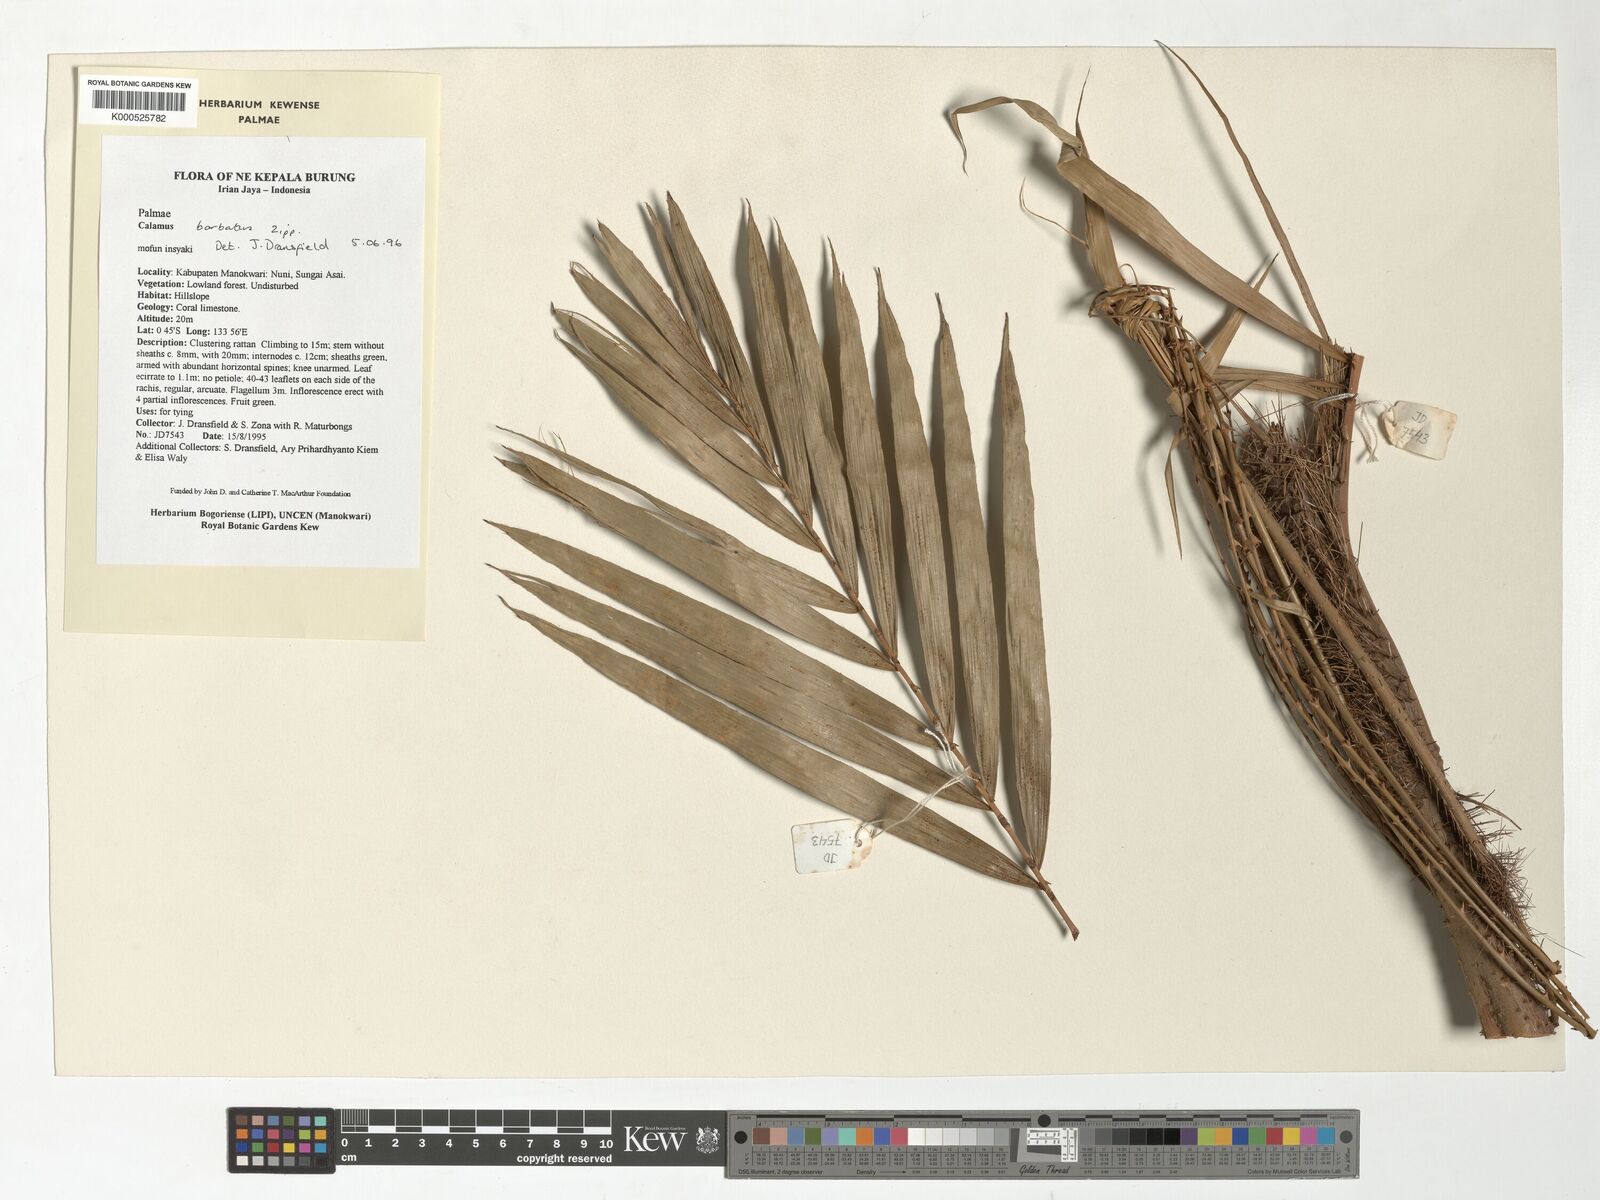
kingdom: Plantae
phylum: Tracheophyta
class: Liliopsida
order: Arecales
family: Arecaceae
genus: Calamus
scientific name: Calamus
